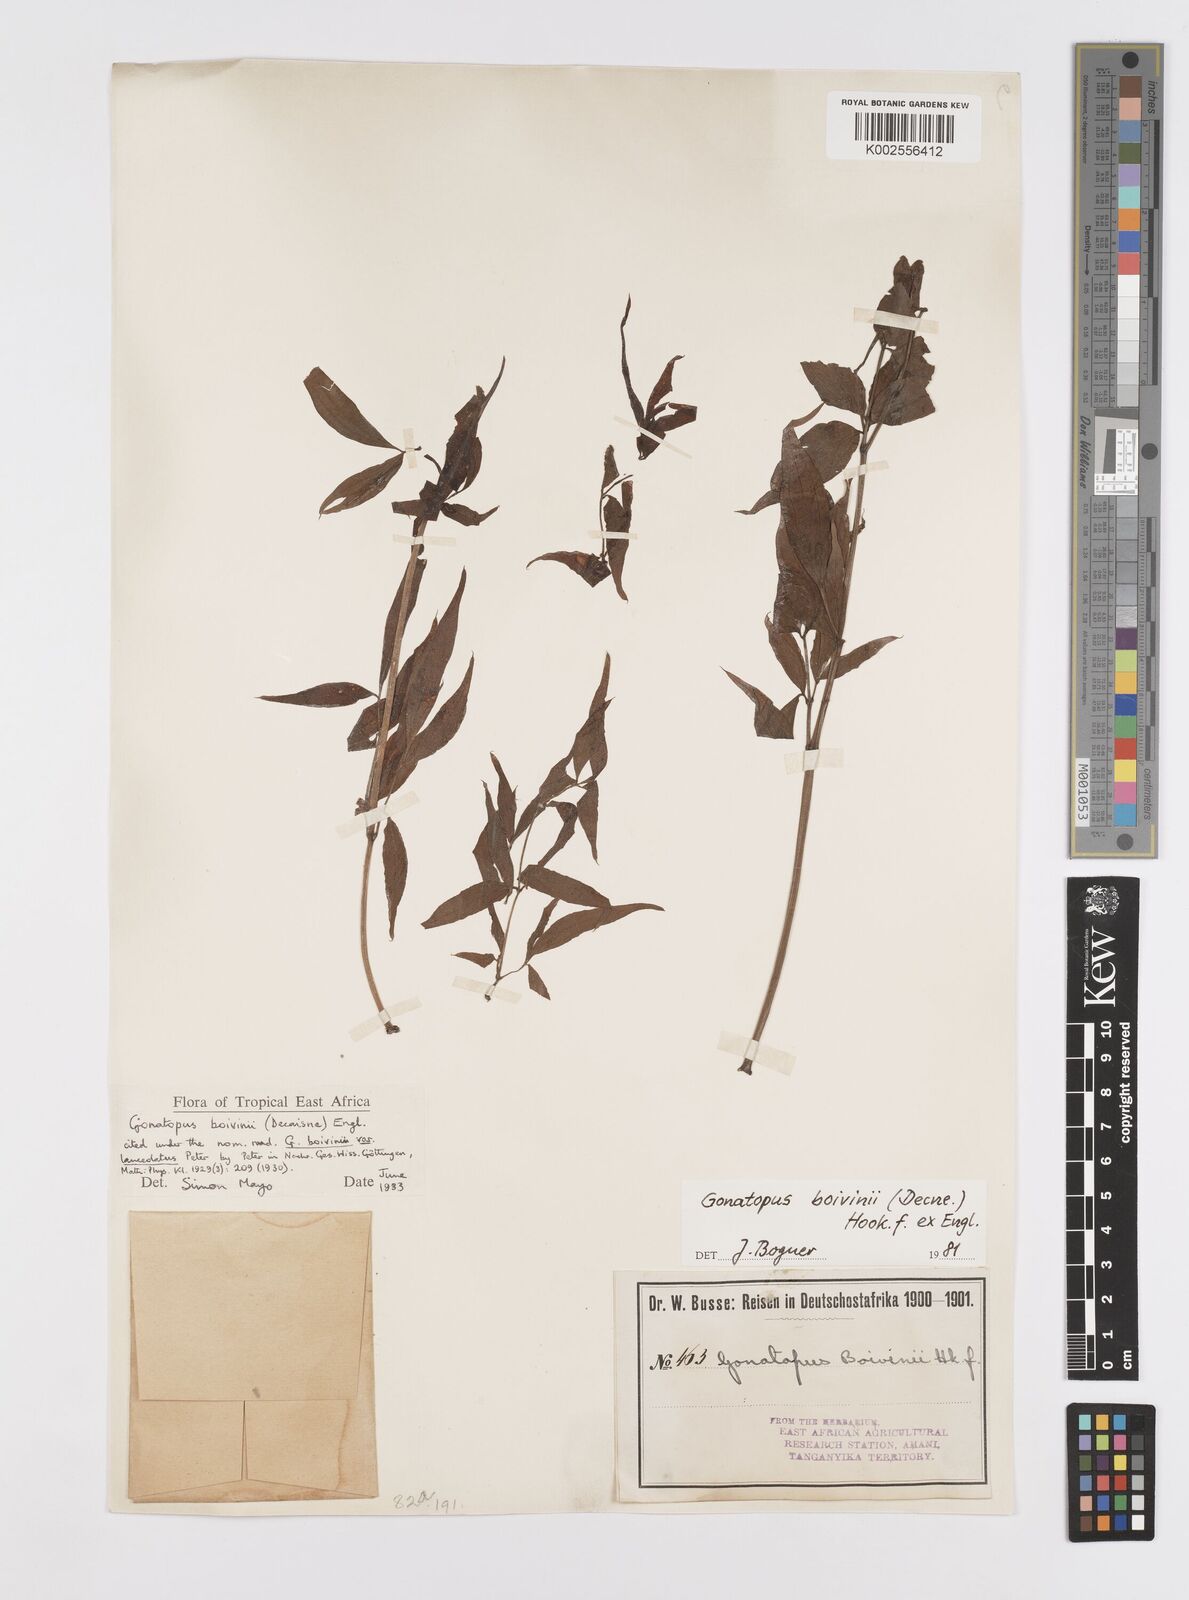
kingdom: Plantae
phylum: Tracheophyta
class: Liliopsida
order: Alismatales
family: Araceae
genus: Gonatopus
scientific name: Gonatopus boivinii
